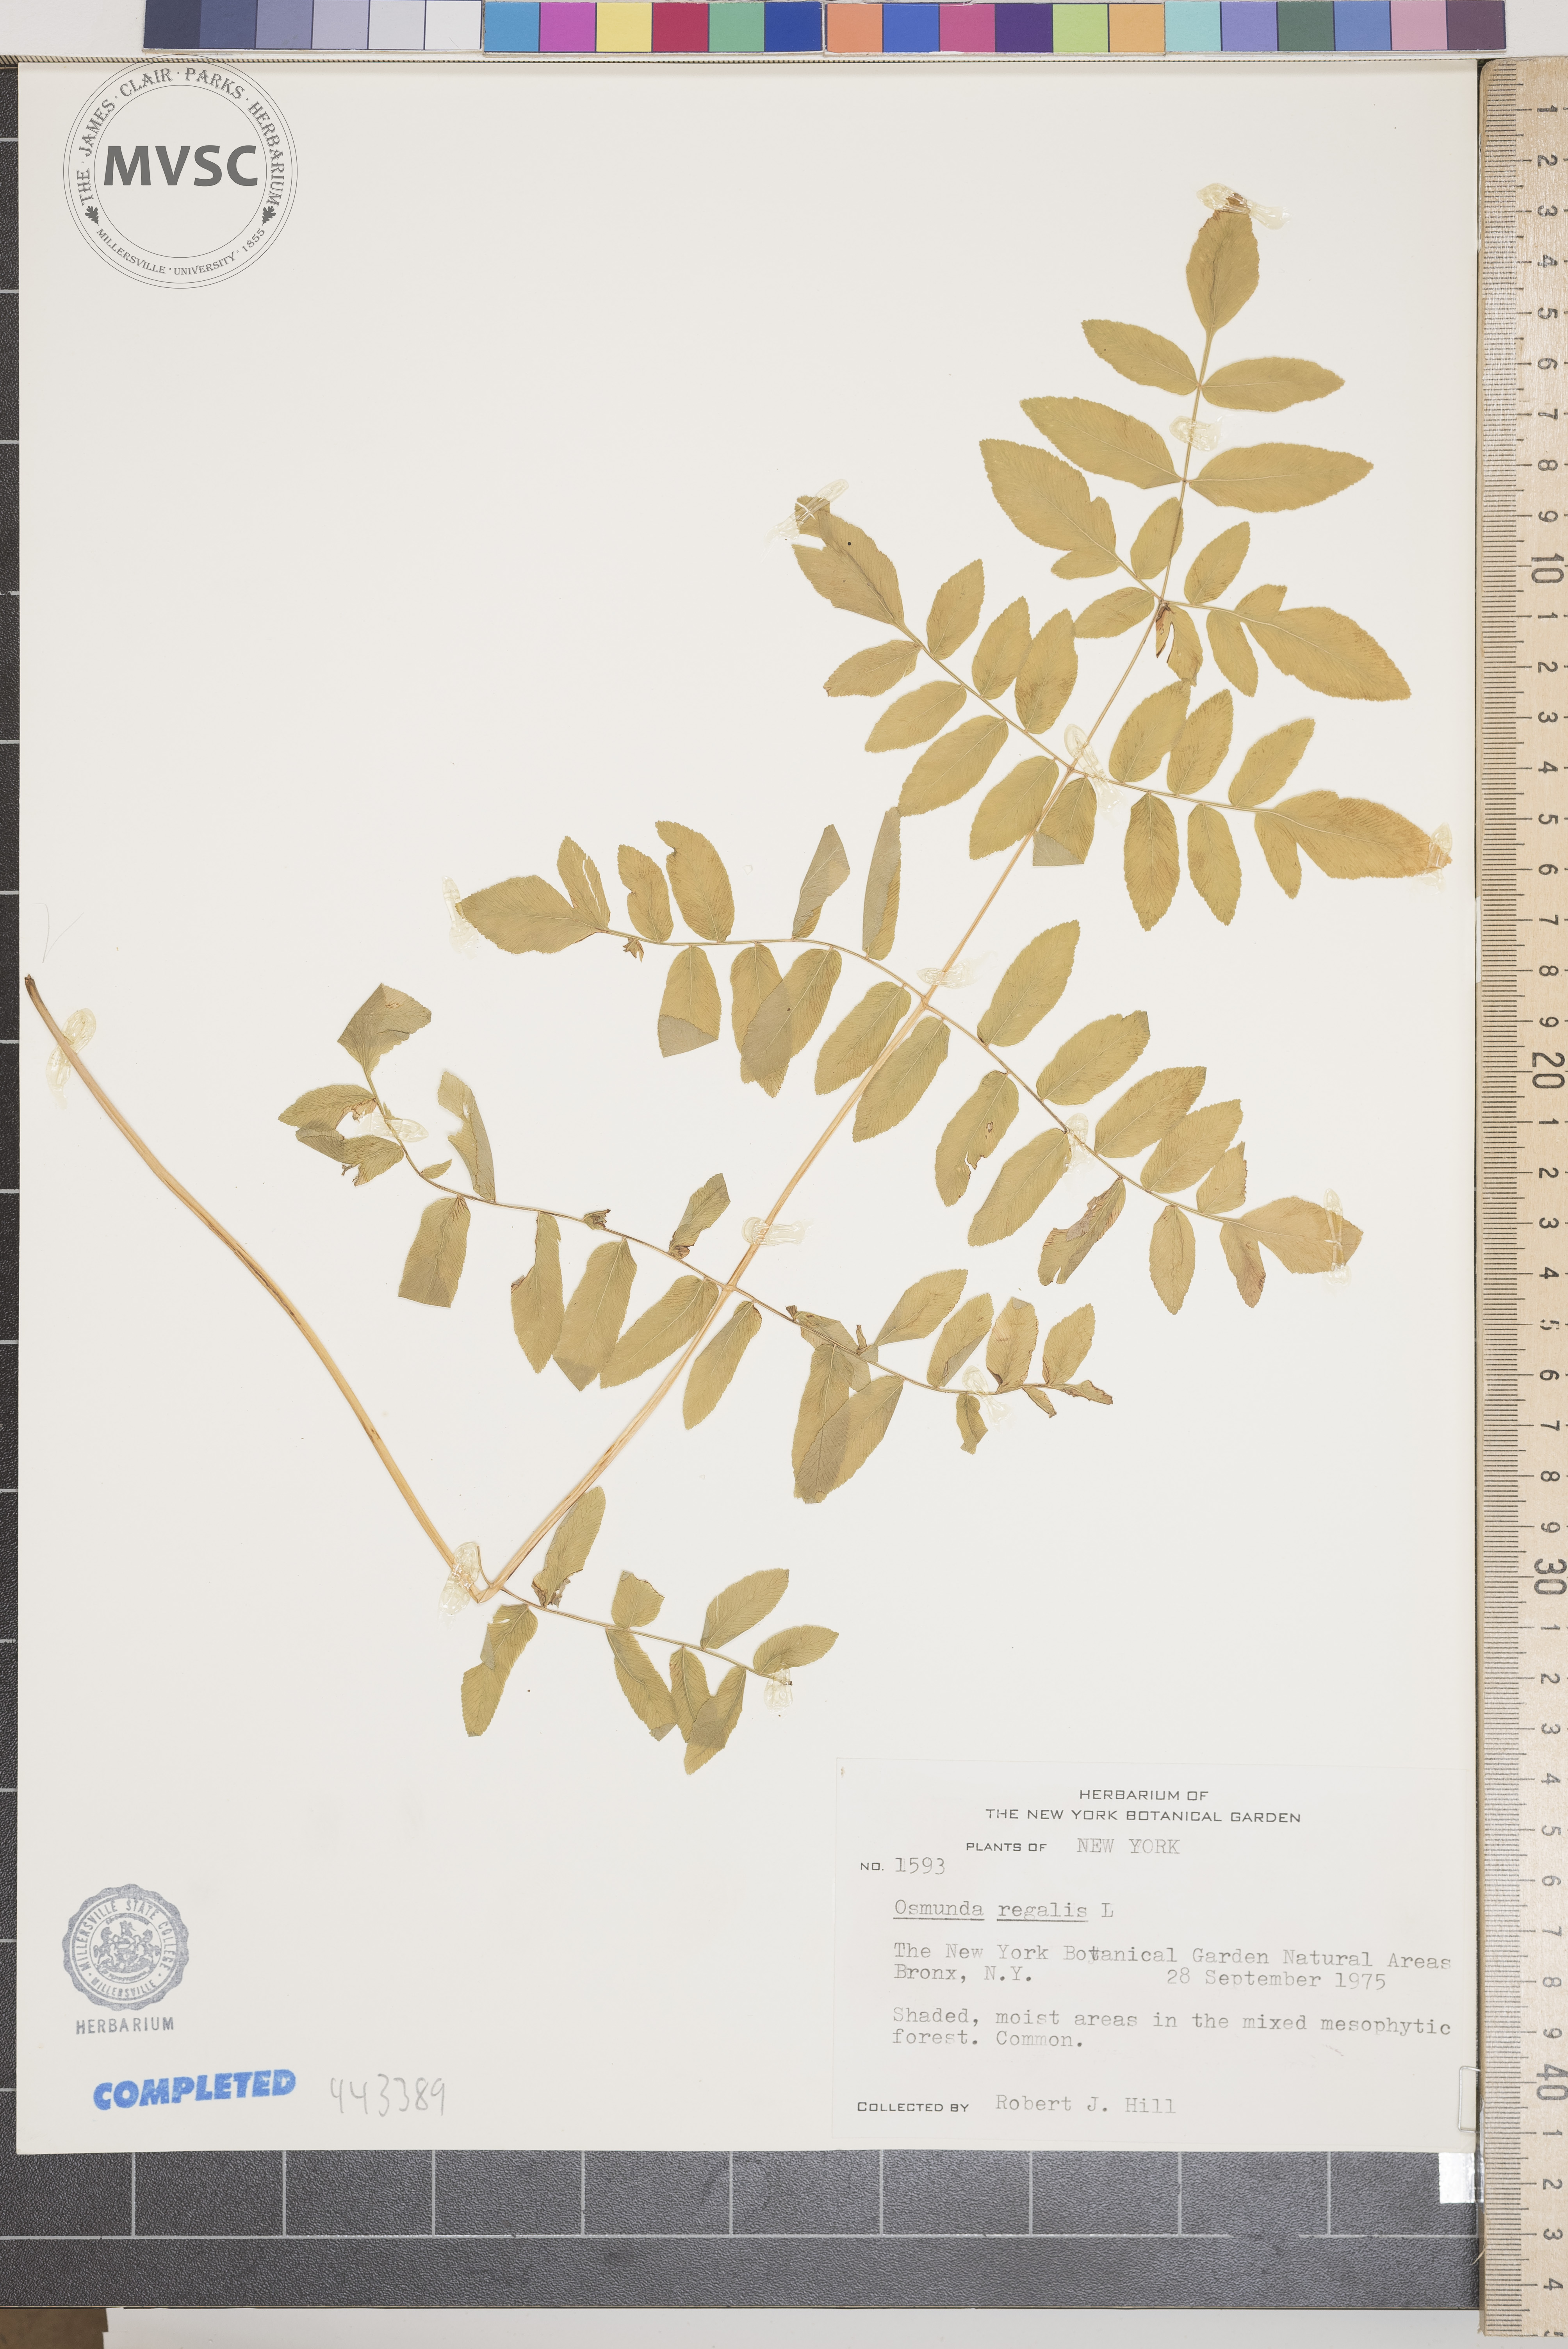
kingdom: Plantae
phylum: Tracheophyta
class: Polypodiopsida
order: Osmundales
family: Osmundaceae
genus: Osmunda
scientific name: Osmunda regalis
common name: Royal fern
